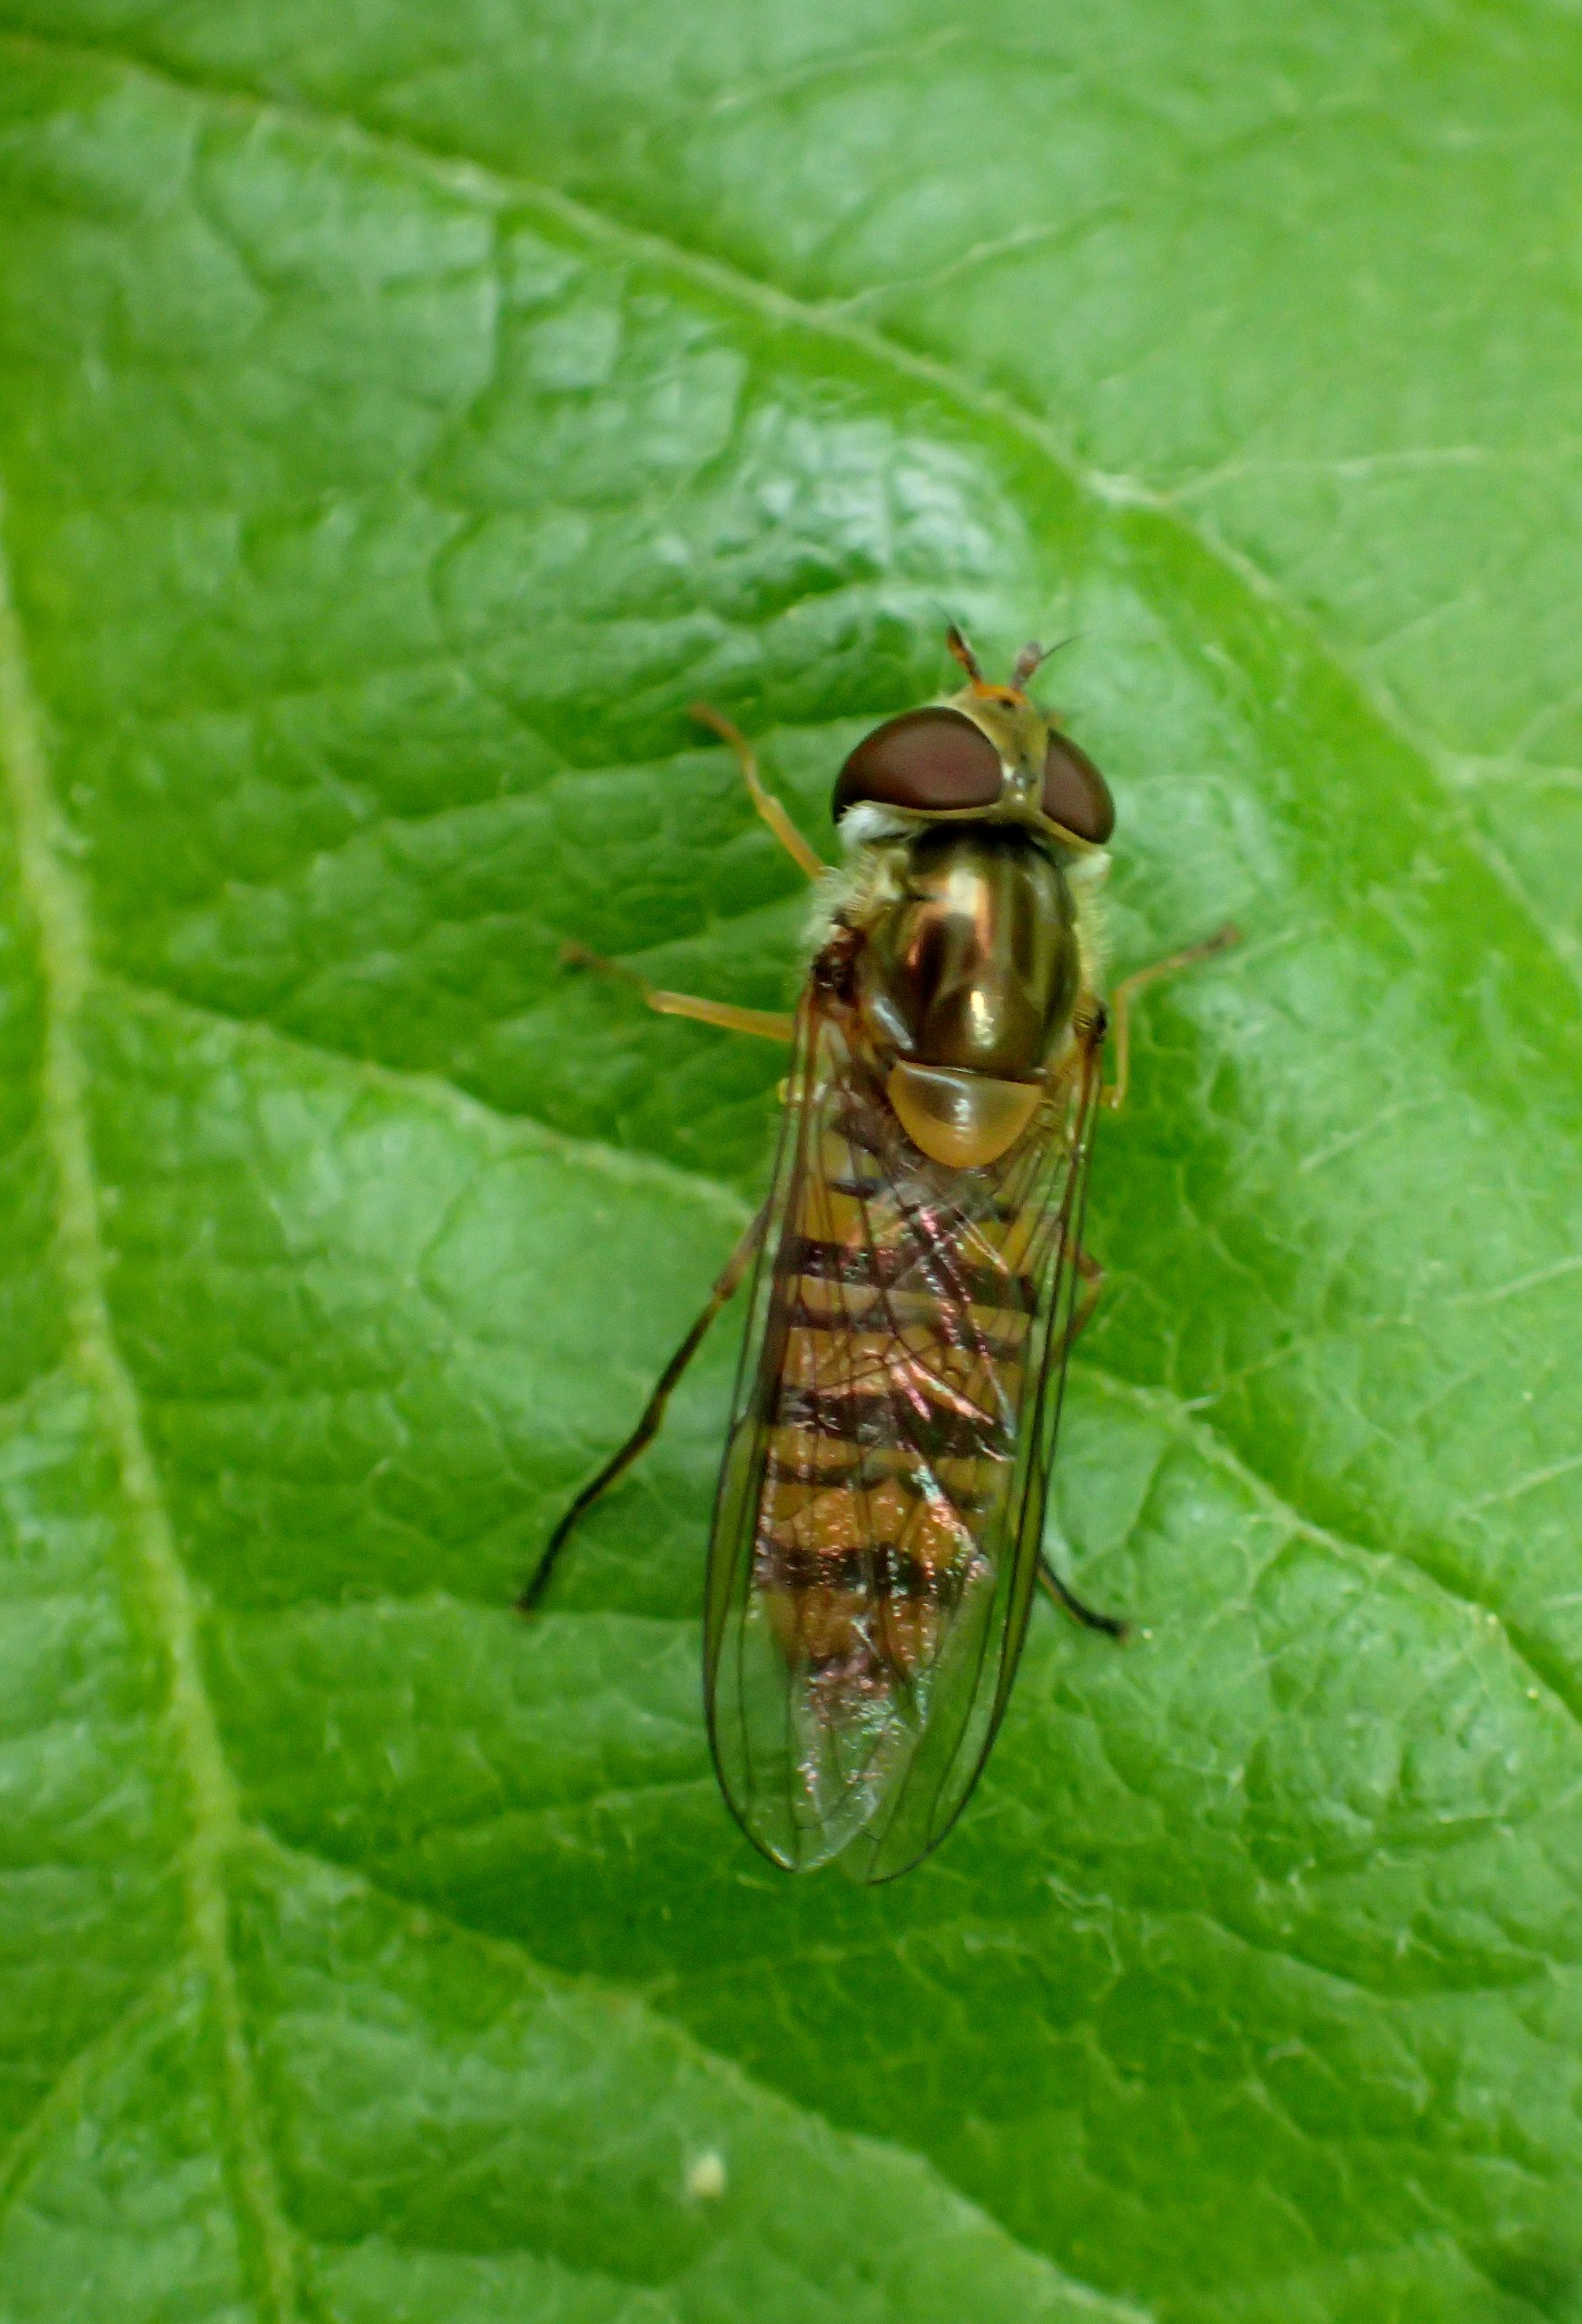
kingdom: Animalia
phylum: Arthropoda
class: Insecta
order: Diptera
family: Syrphidae
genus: Episyrphus
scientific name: Episyrphus balteatus
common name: Dobbeltbåndet svirreflue
